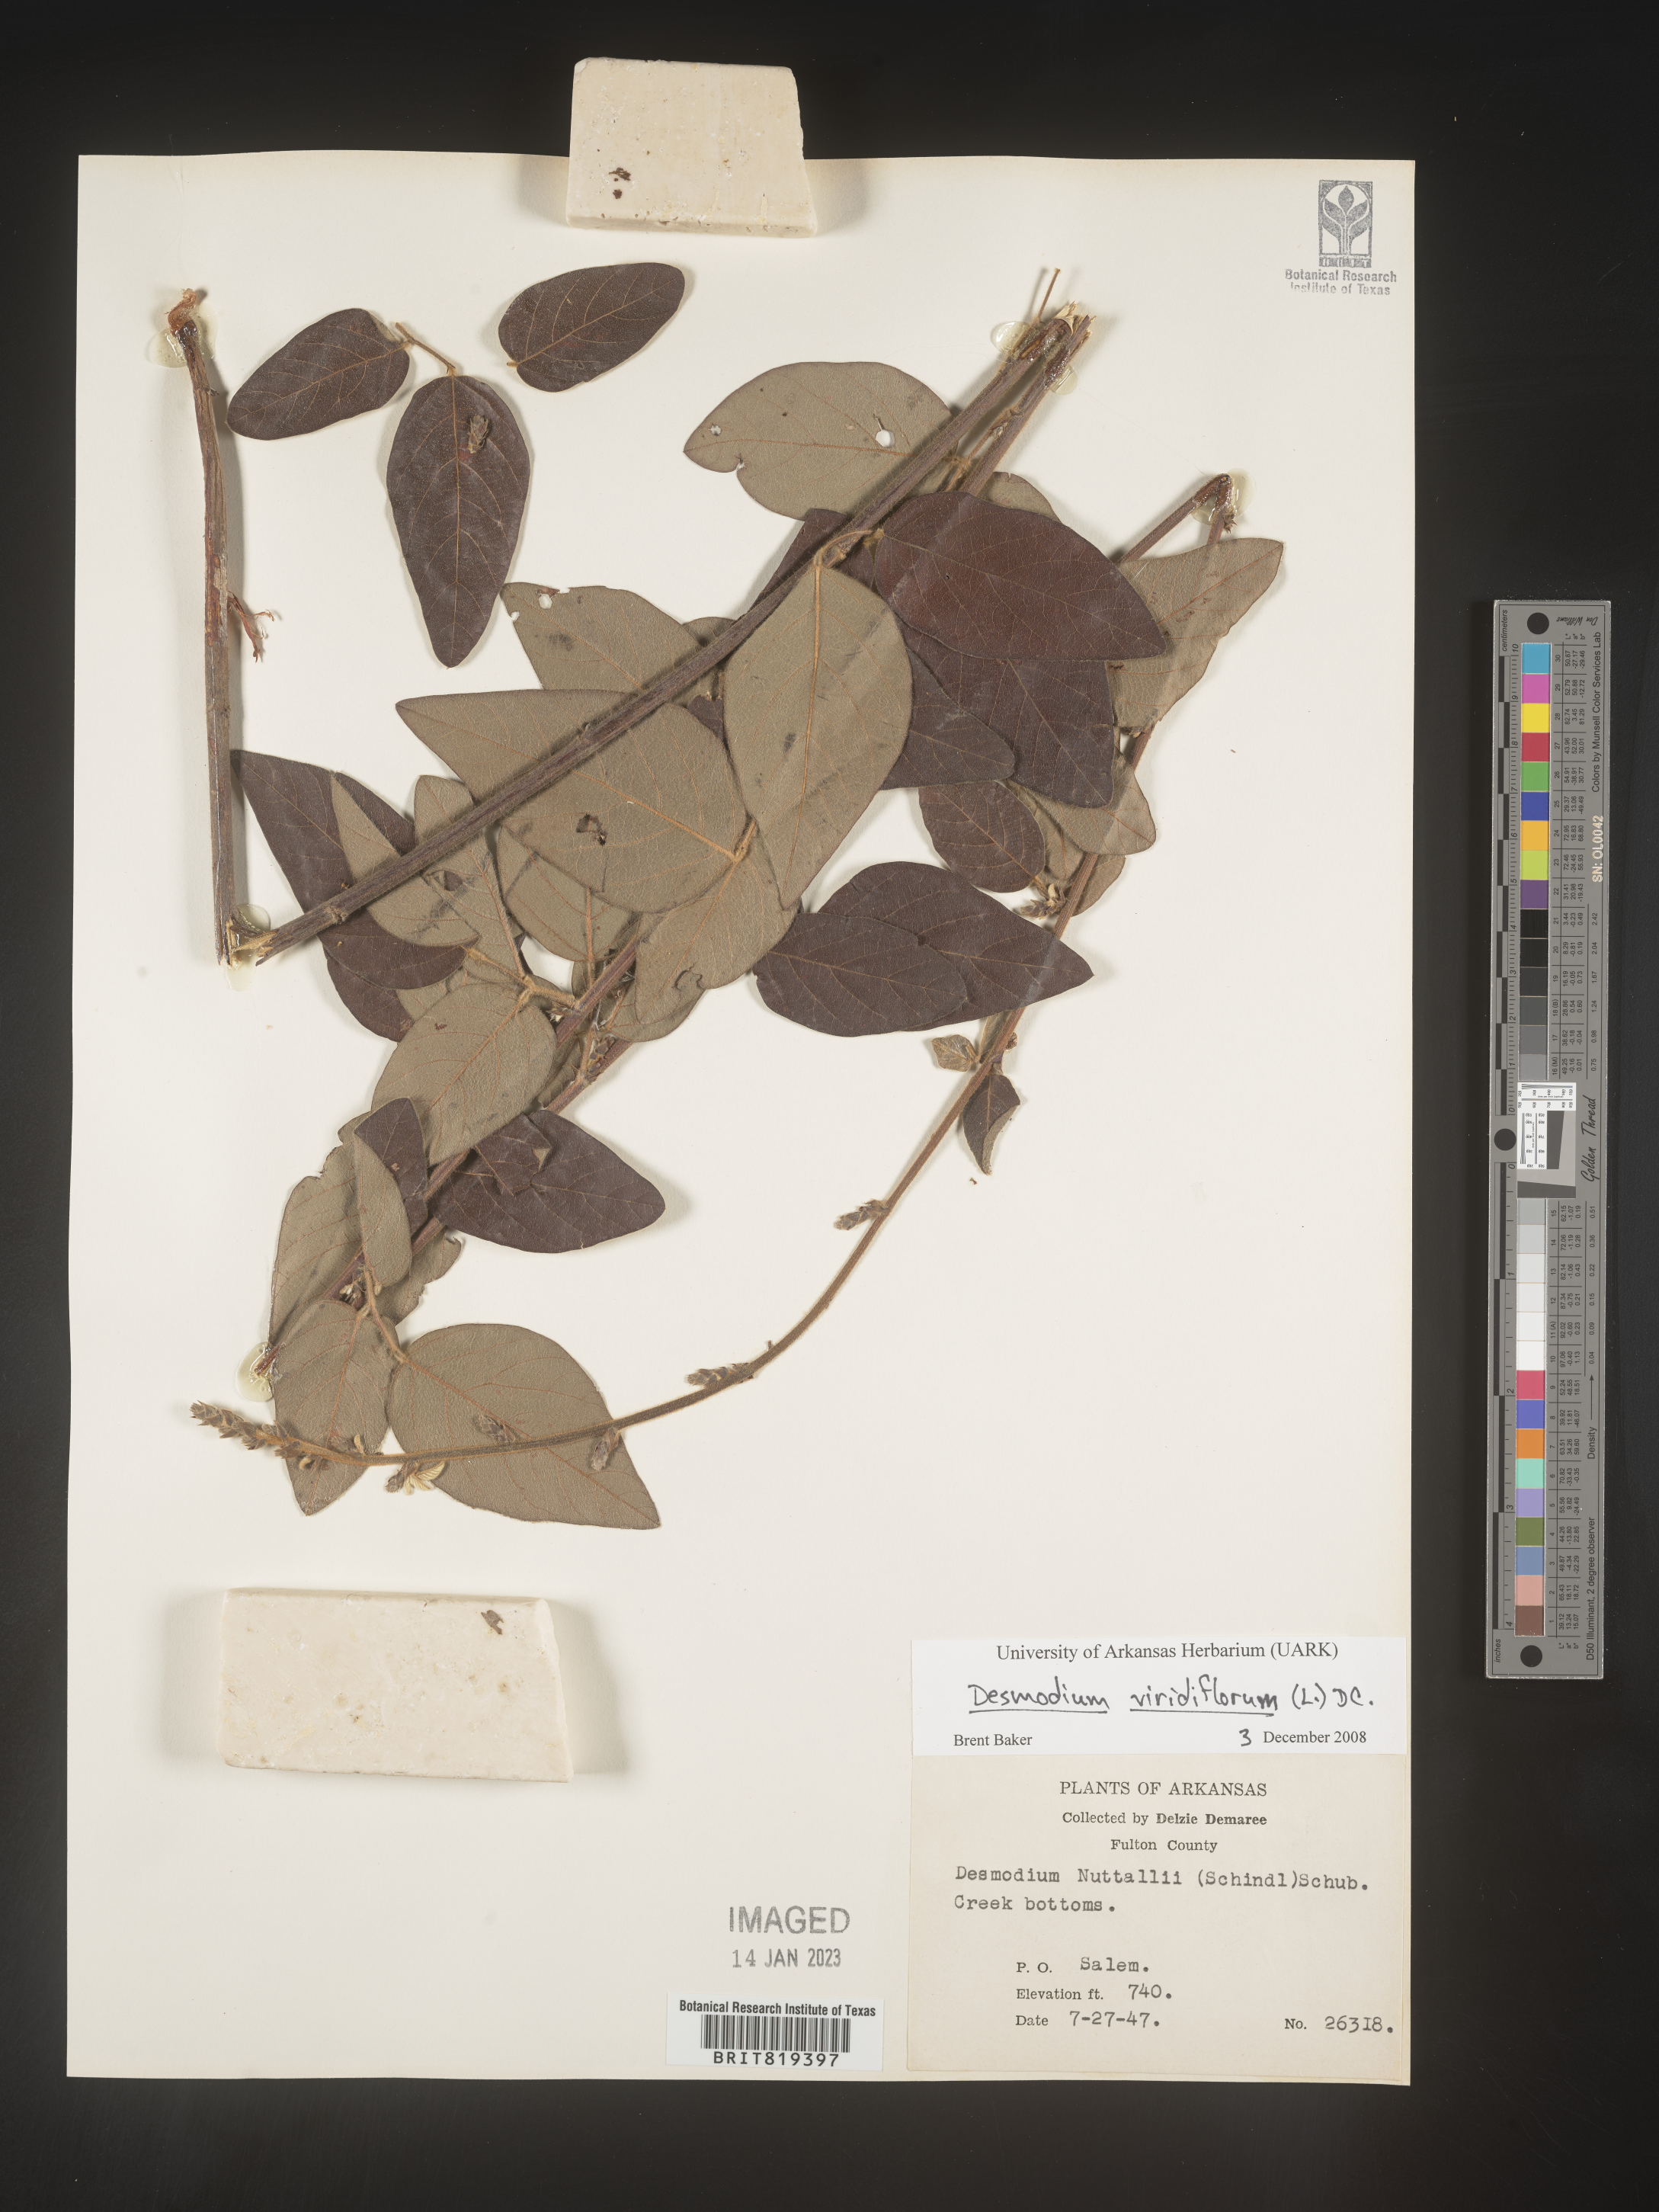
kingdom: Plantae
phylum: Tracheophyta
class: Magnoliopsida
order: Fabales
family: Fabaceae
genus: Desmodium
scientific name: Desmodium viridiflorum
